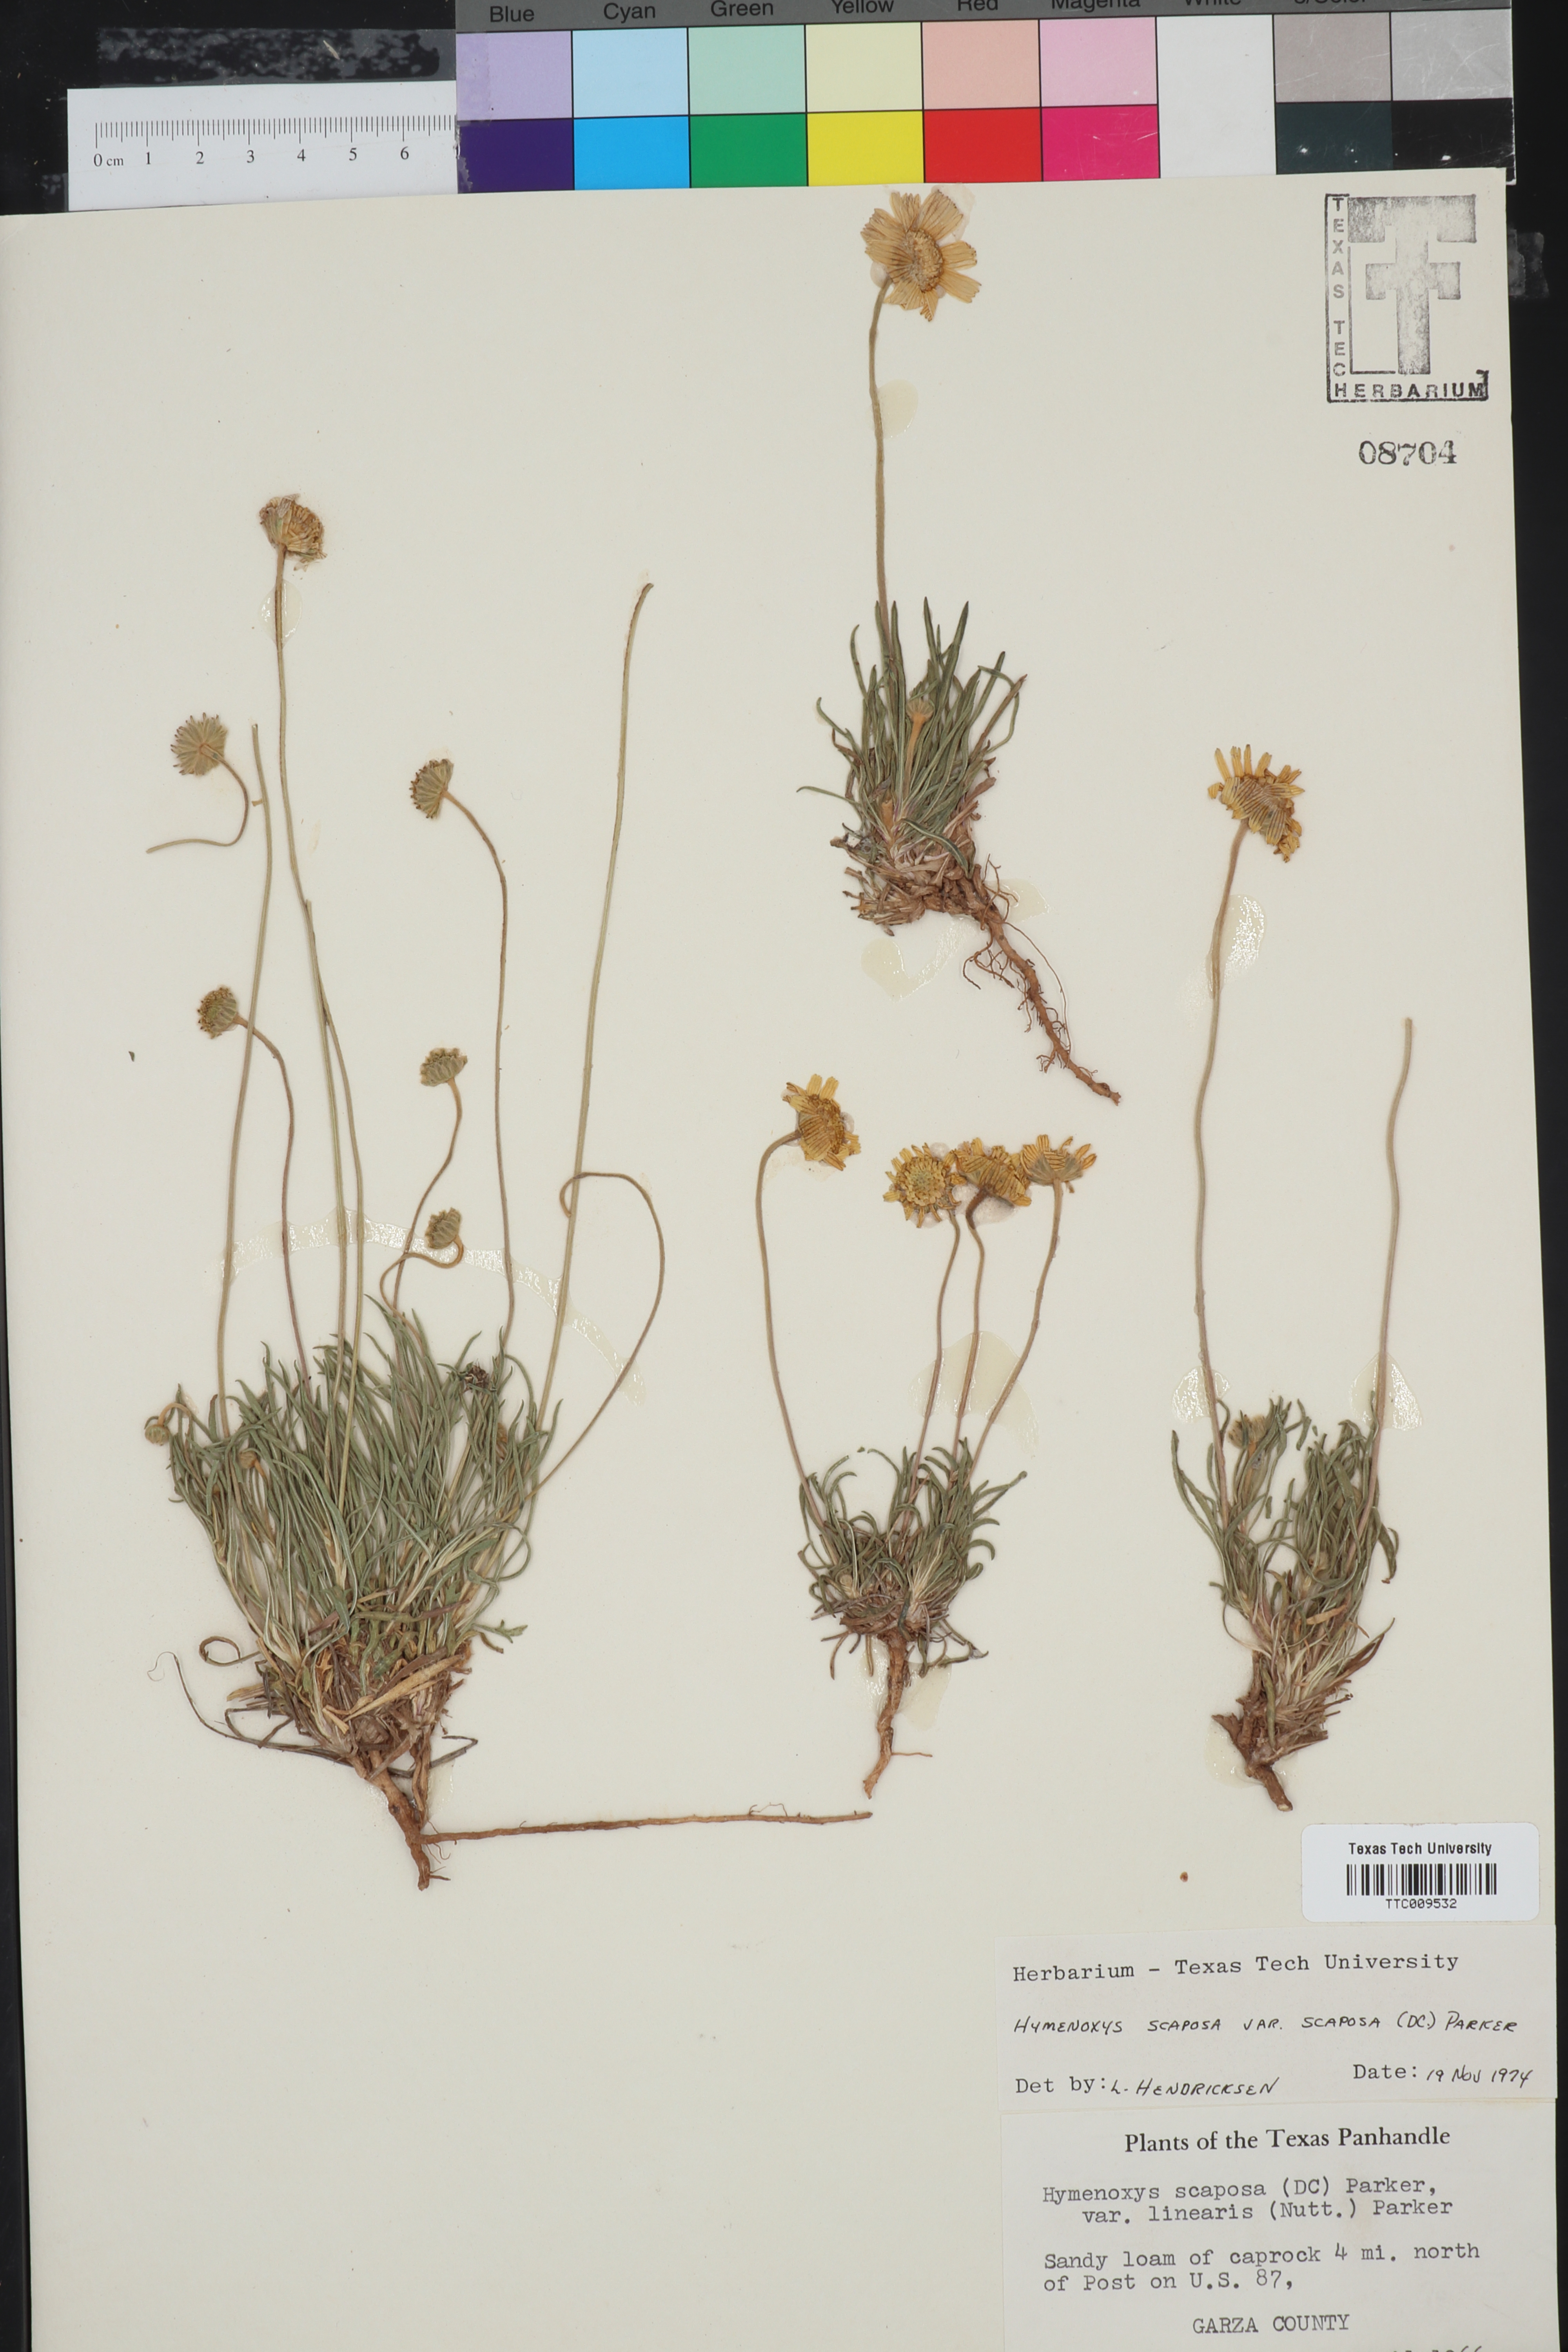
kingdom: Plantae
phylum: Tracheophyta
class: Magnoliopsida
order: Asterales
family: Asteraceae
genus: Tetraneuris
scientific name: Tetraneuris scaposa
